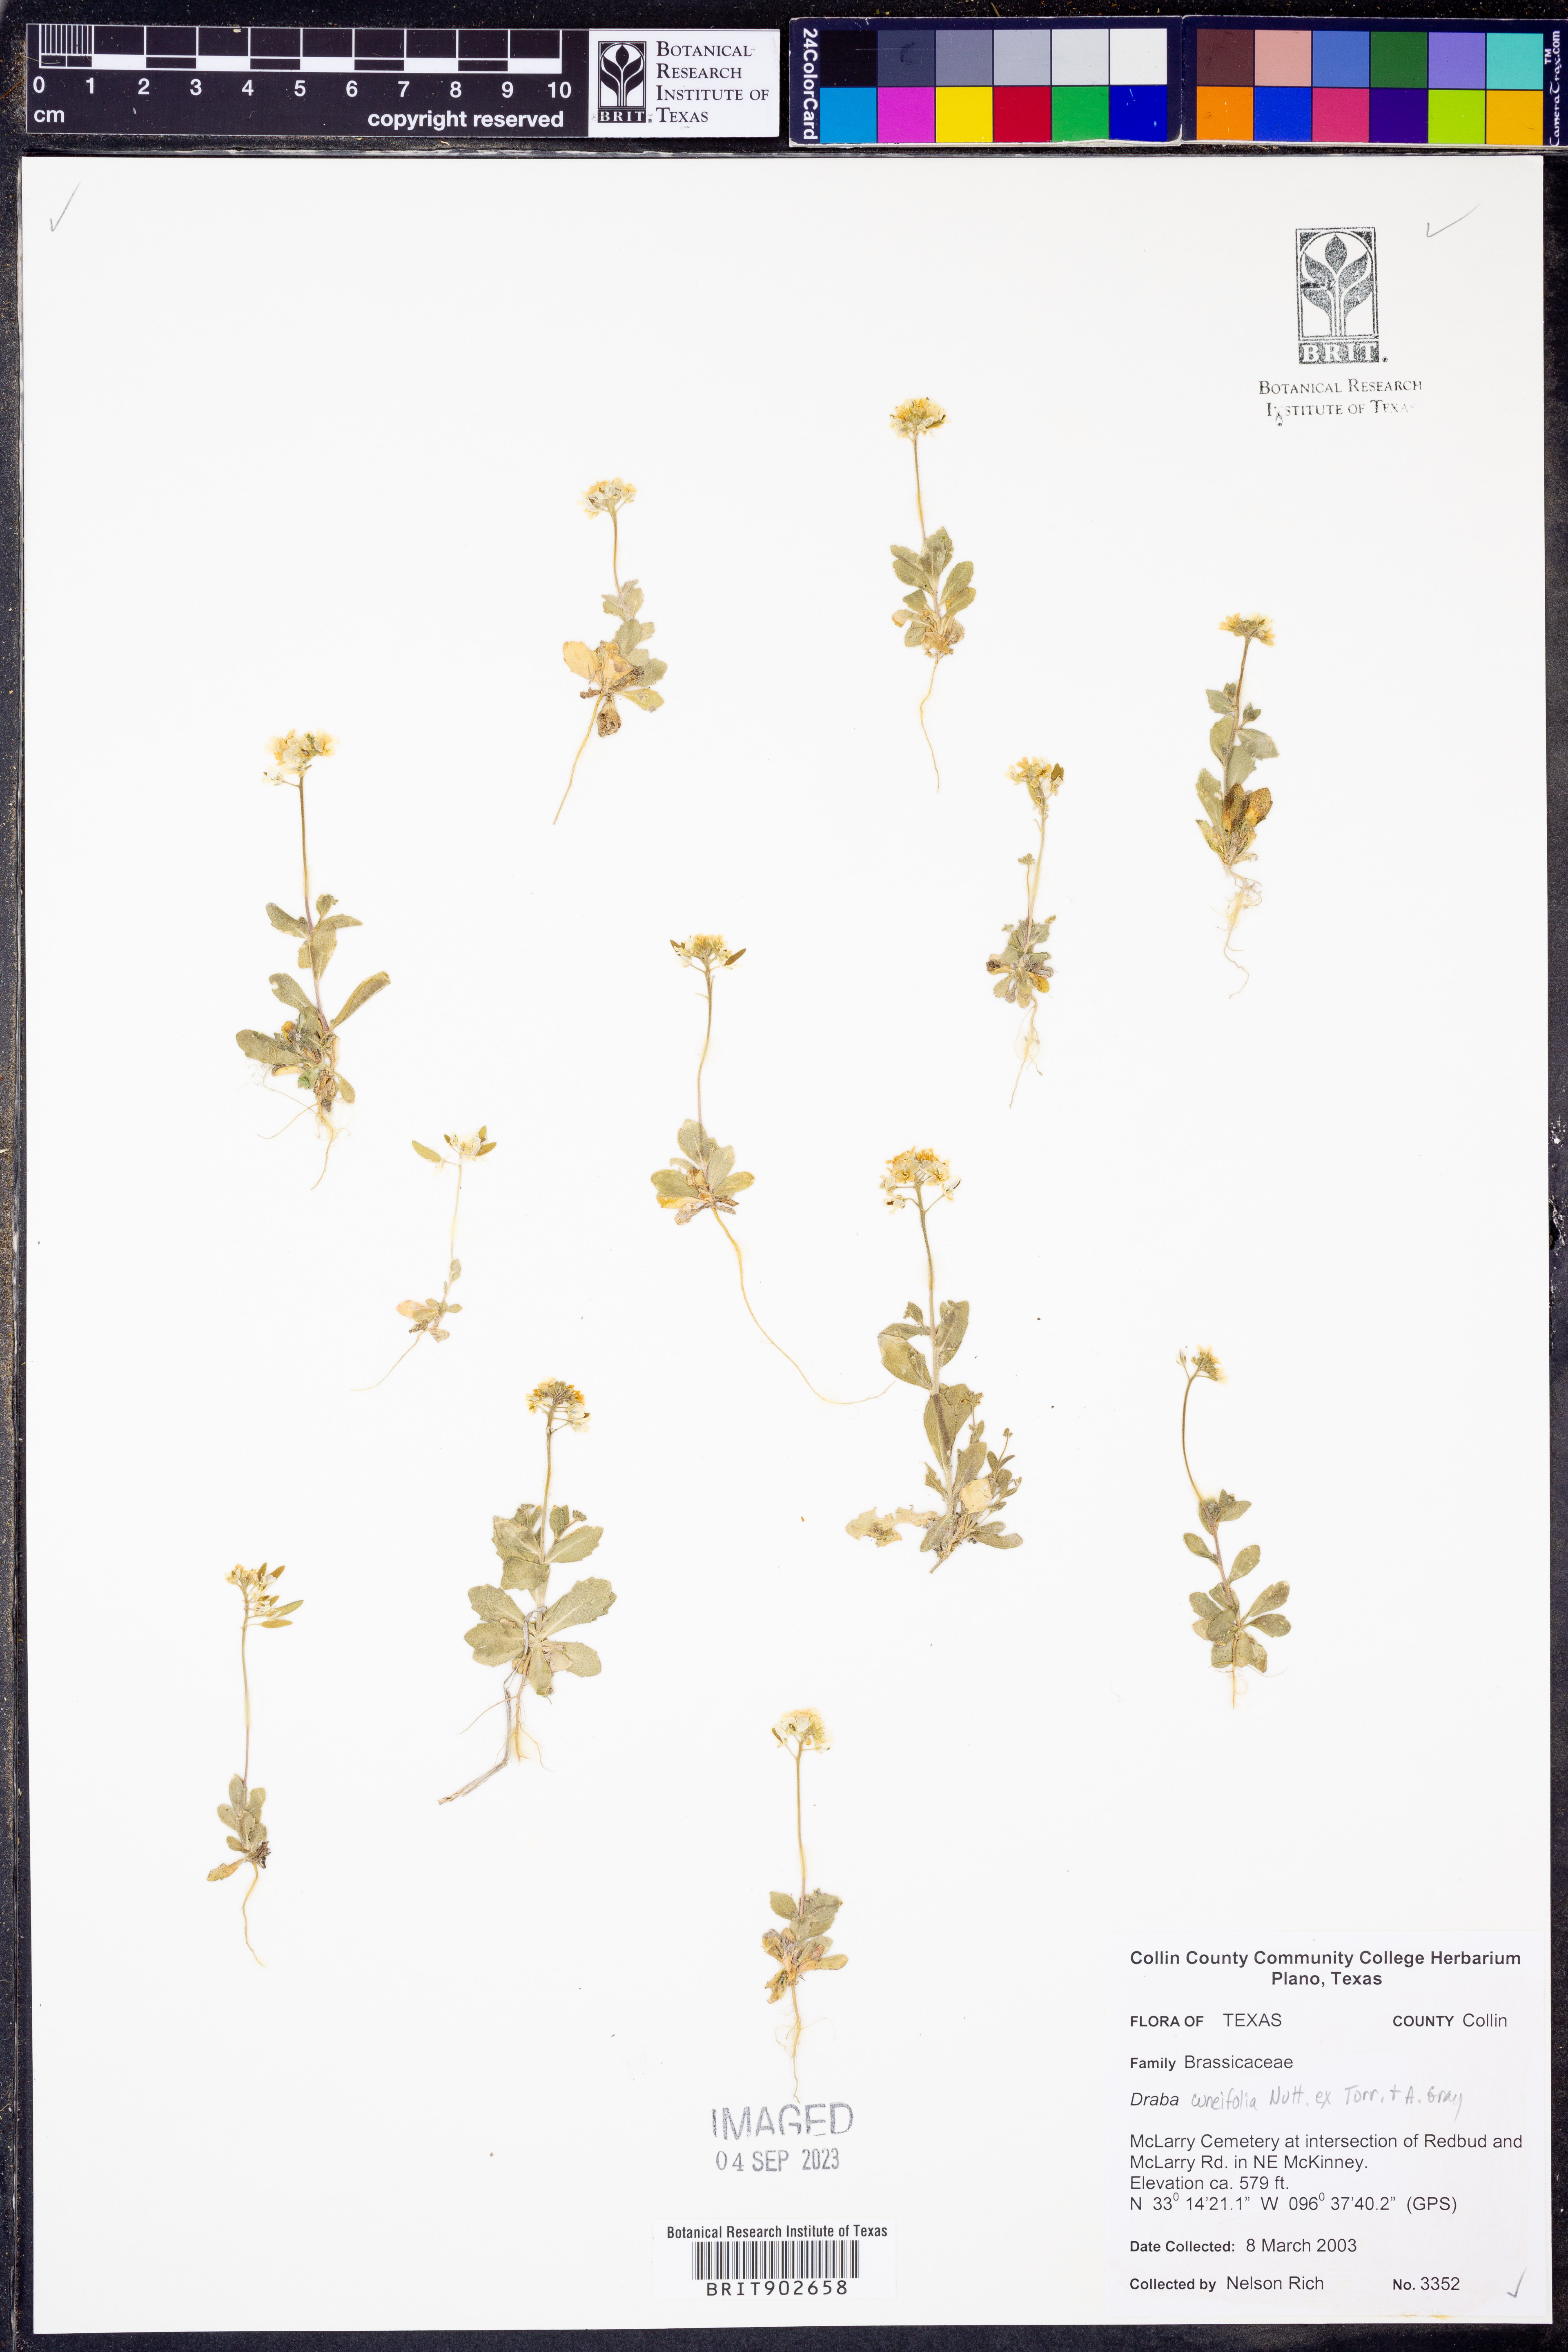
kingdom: Plantae
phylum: Tracheophyta
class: Magnoliopsida
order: Brassicales
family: Brassicaceae
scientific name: Brassicaceae
